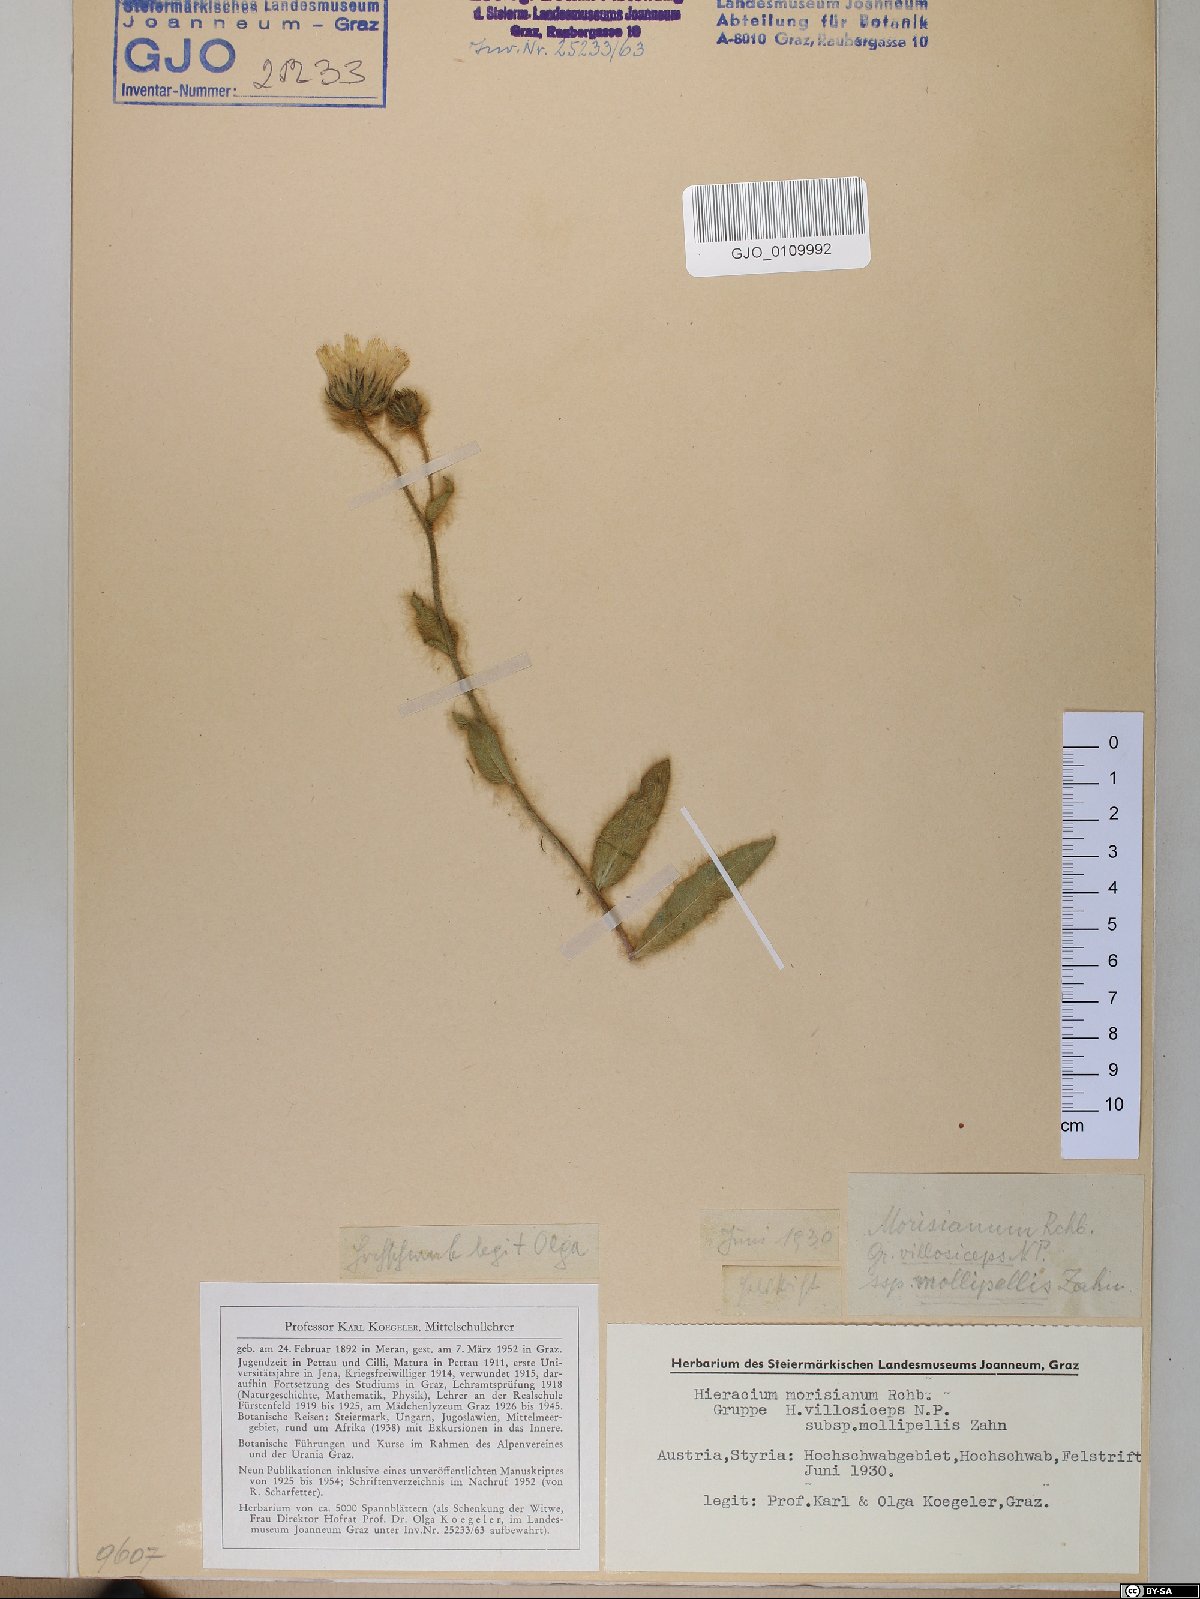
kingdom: Plantae
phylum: Tracheophyta
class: Magnoliopsida
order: Asterales
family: Asteraceae
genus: Hieracium
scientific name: Hieracium pilosum
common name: Fimbriate-pitted hawkweed
